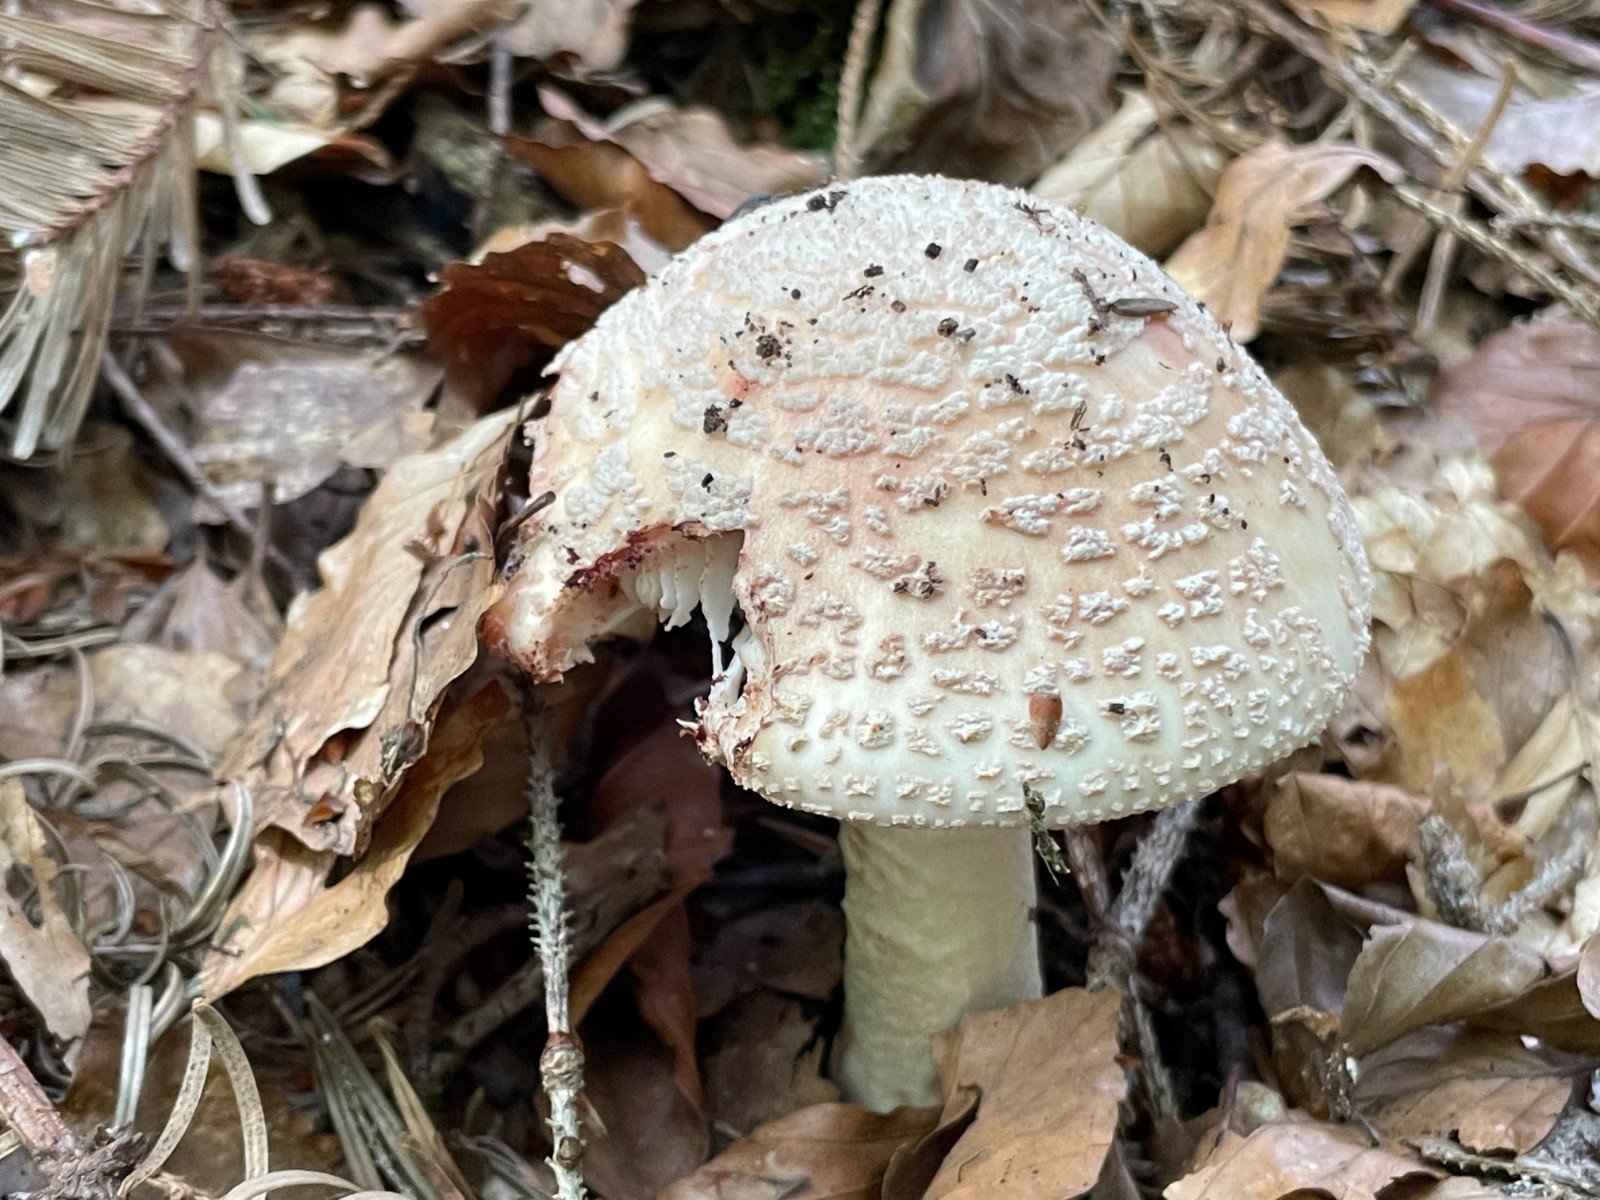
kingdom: Fungi
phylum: Basidiomycota
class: Agaricomycetes
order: Agaricales
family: Amanitaceae
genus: Amanita
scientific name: Amanita rubescens
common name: rødmende fluesvamp
